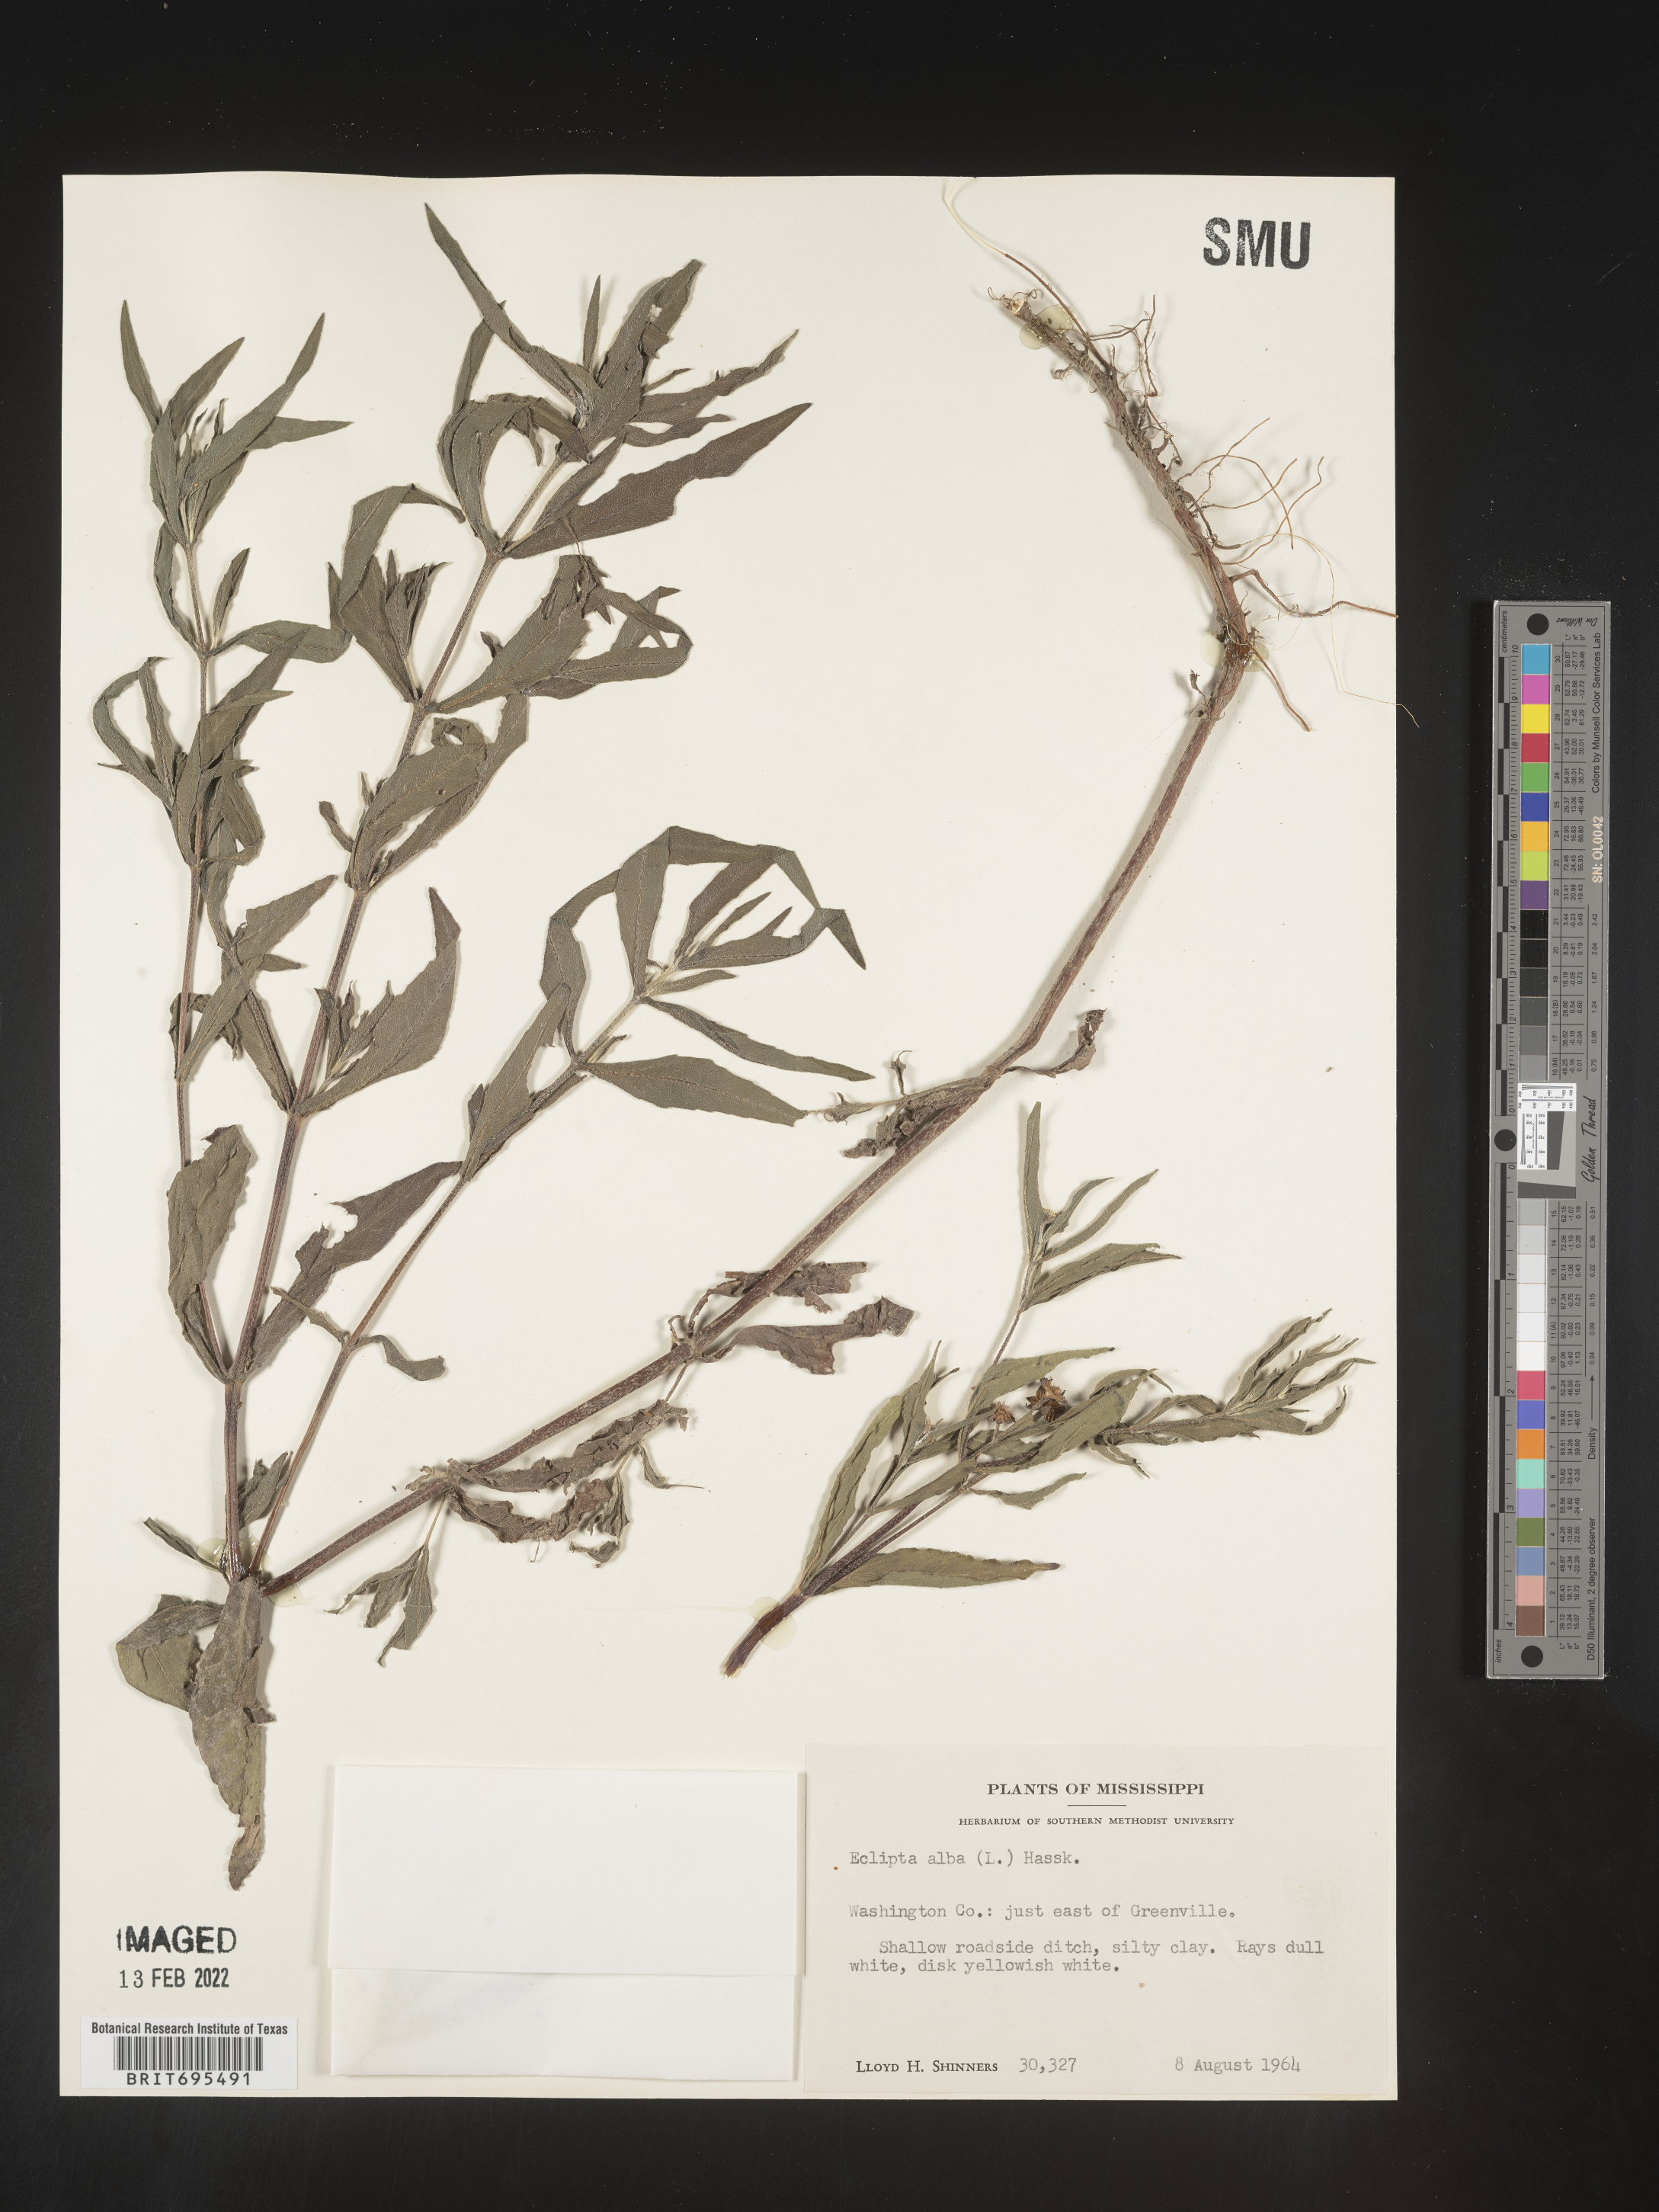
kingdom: Plantae
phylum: Tracheophyta
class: Magnoliopsida
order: Asterales
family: Asteraceae
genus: Eclipta
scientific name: Eclipta alba
